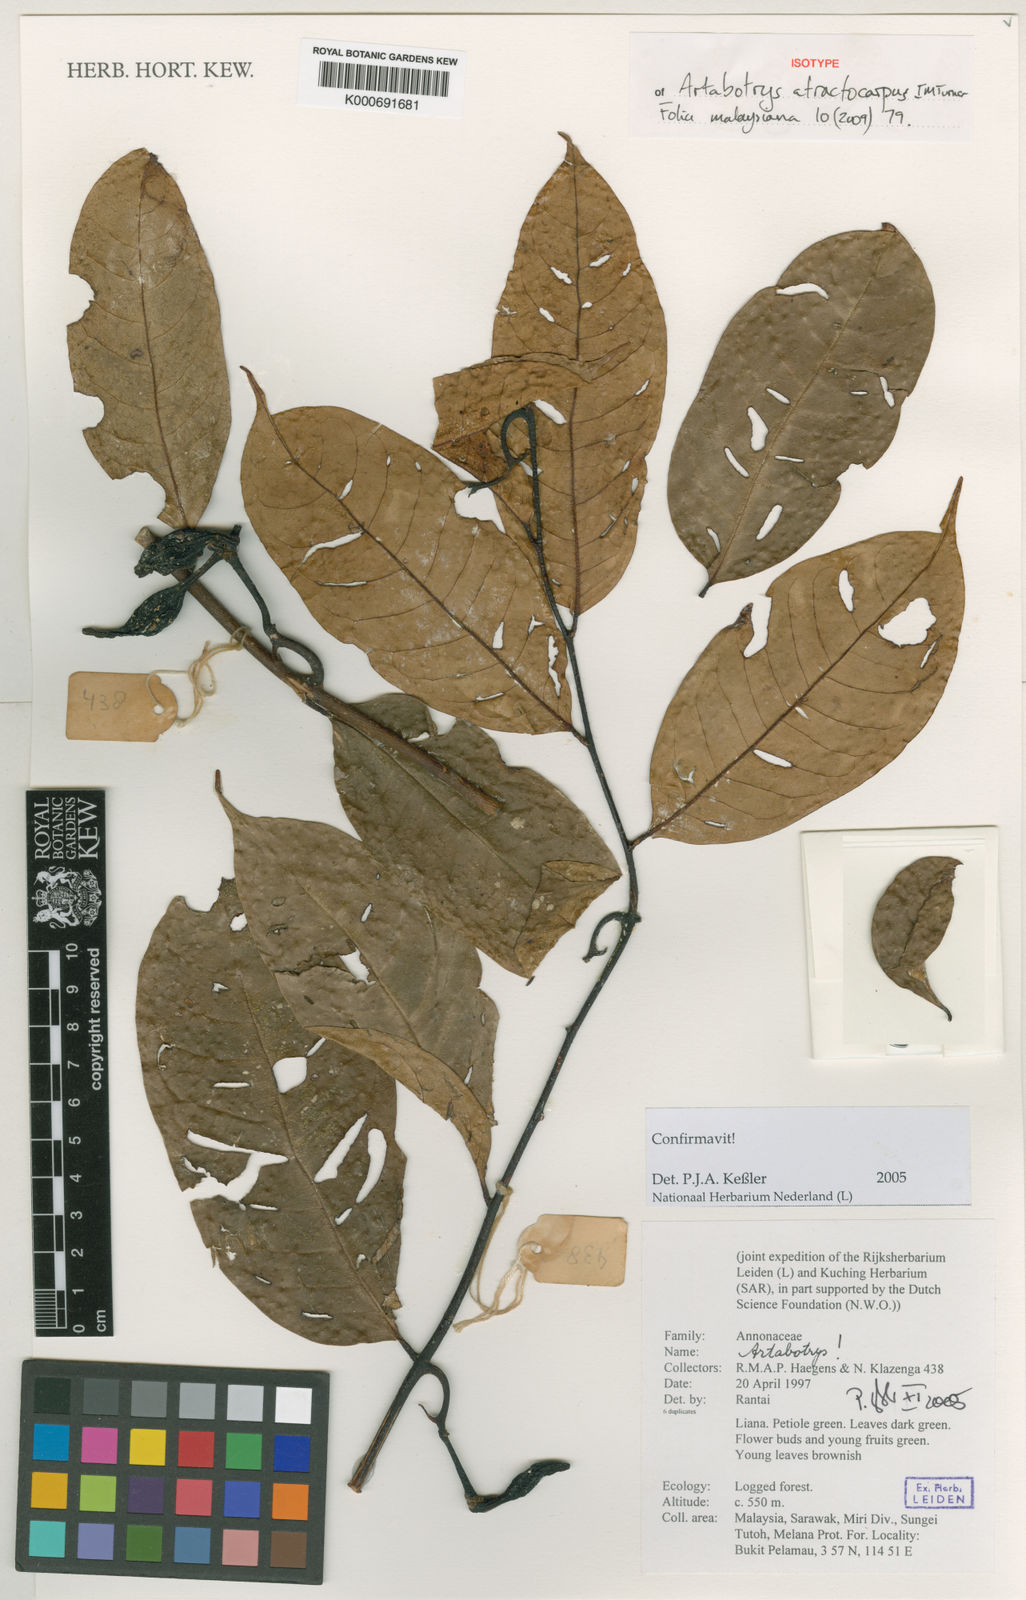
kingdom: Plantae
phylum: Tracheophyta
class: Magnoliopsida
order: Magnoliales
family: Annonaceae
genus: Artabotrys
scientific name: Artabotrys atractocarpus
